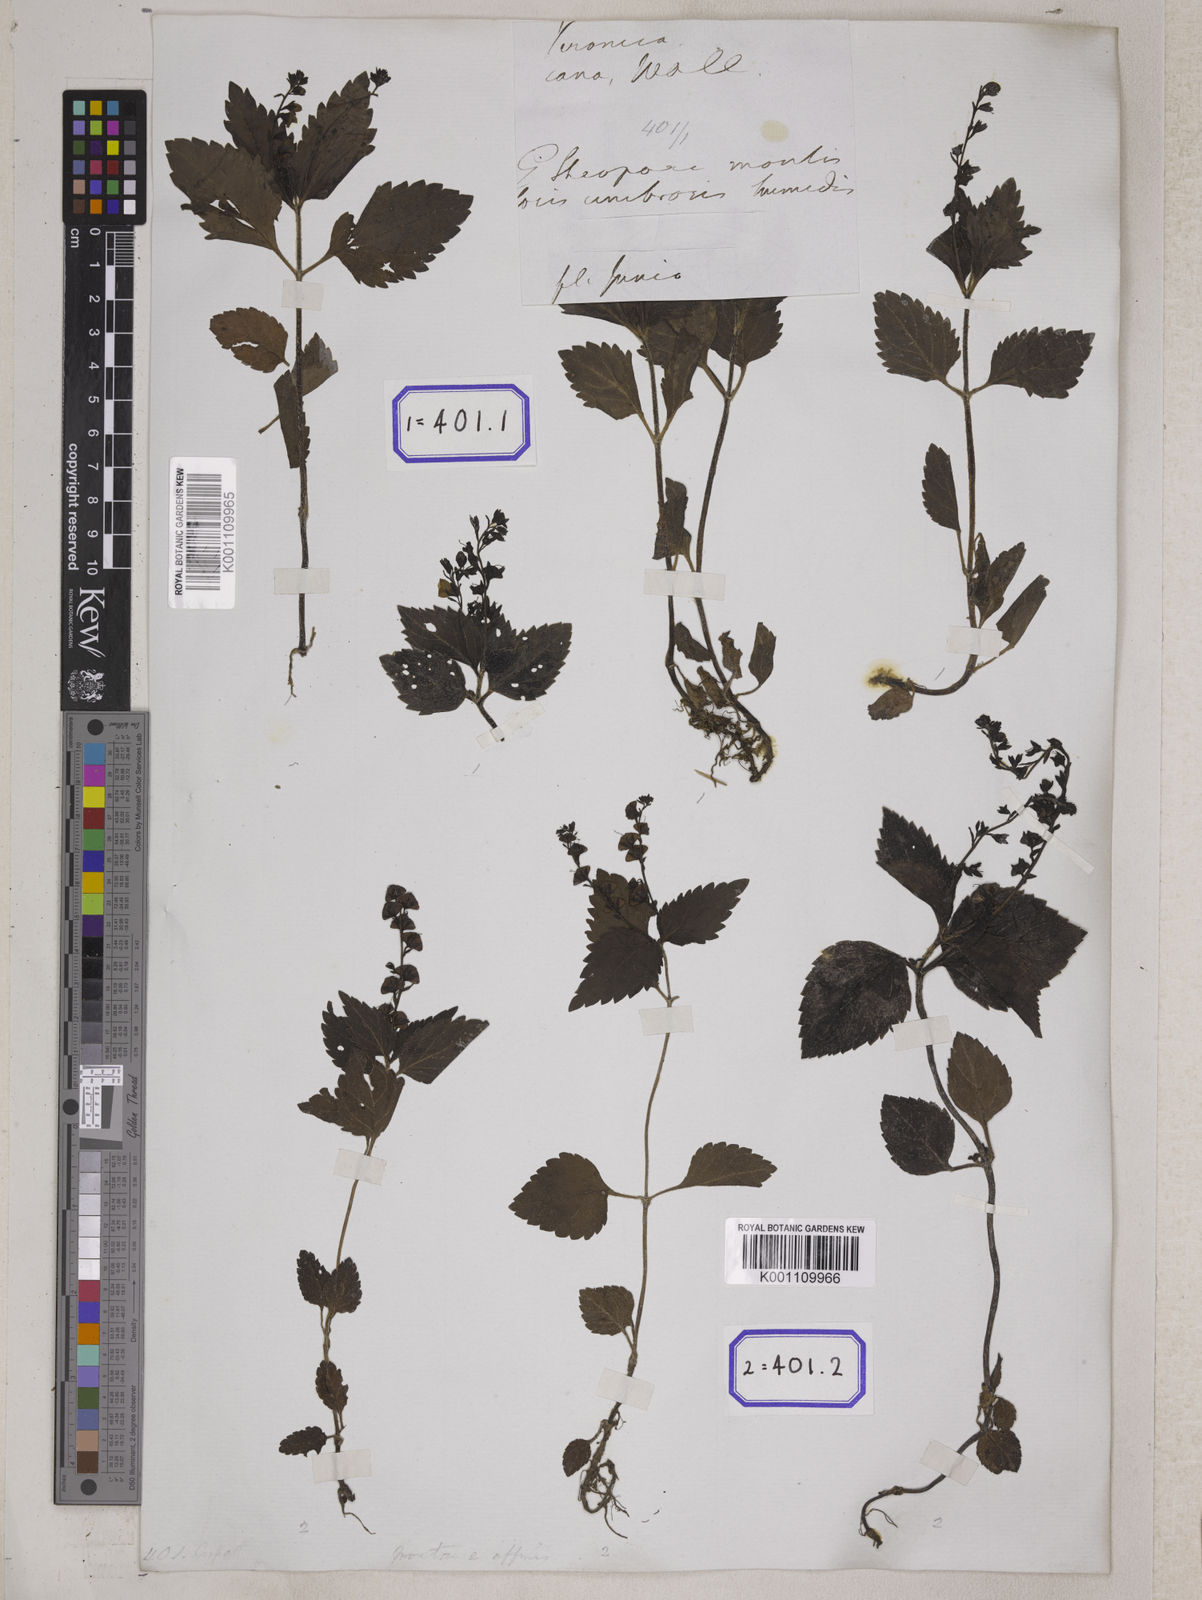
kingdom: Plantae
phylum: Tracheophyta
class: Magnoliopsida
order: Lamiales
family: Plantaginaceae
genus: Veronica
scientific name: Veronica
